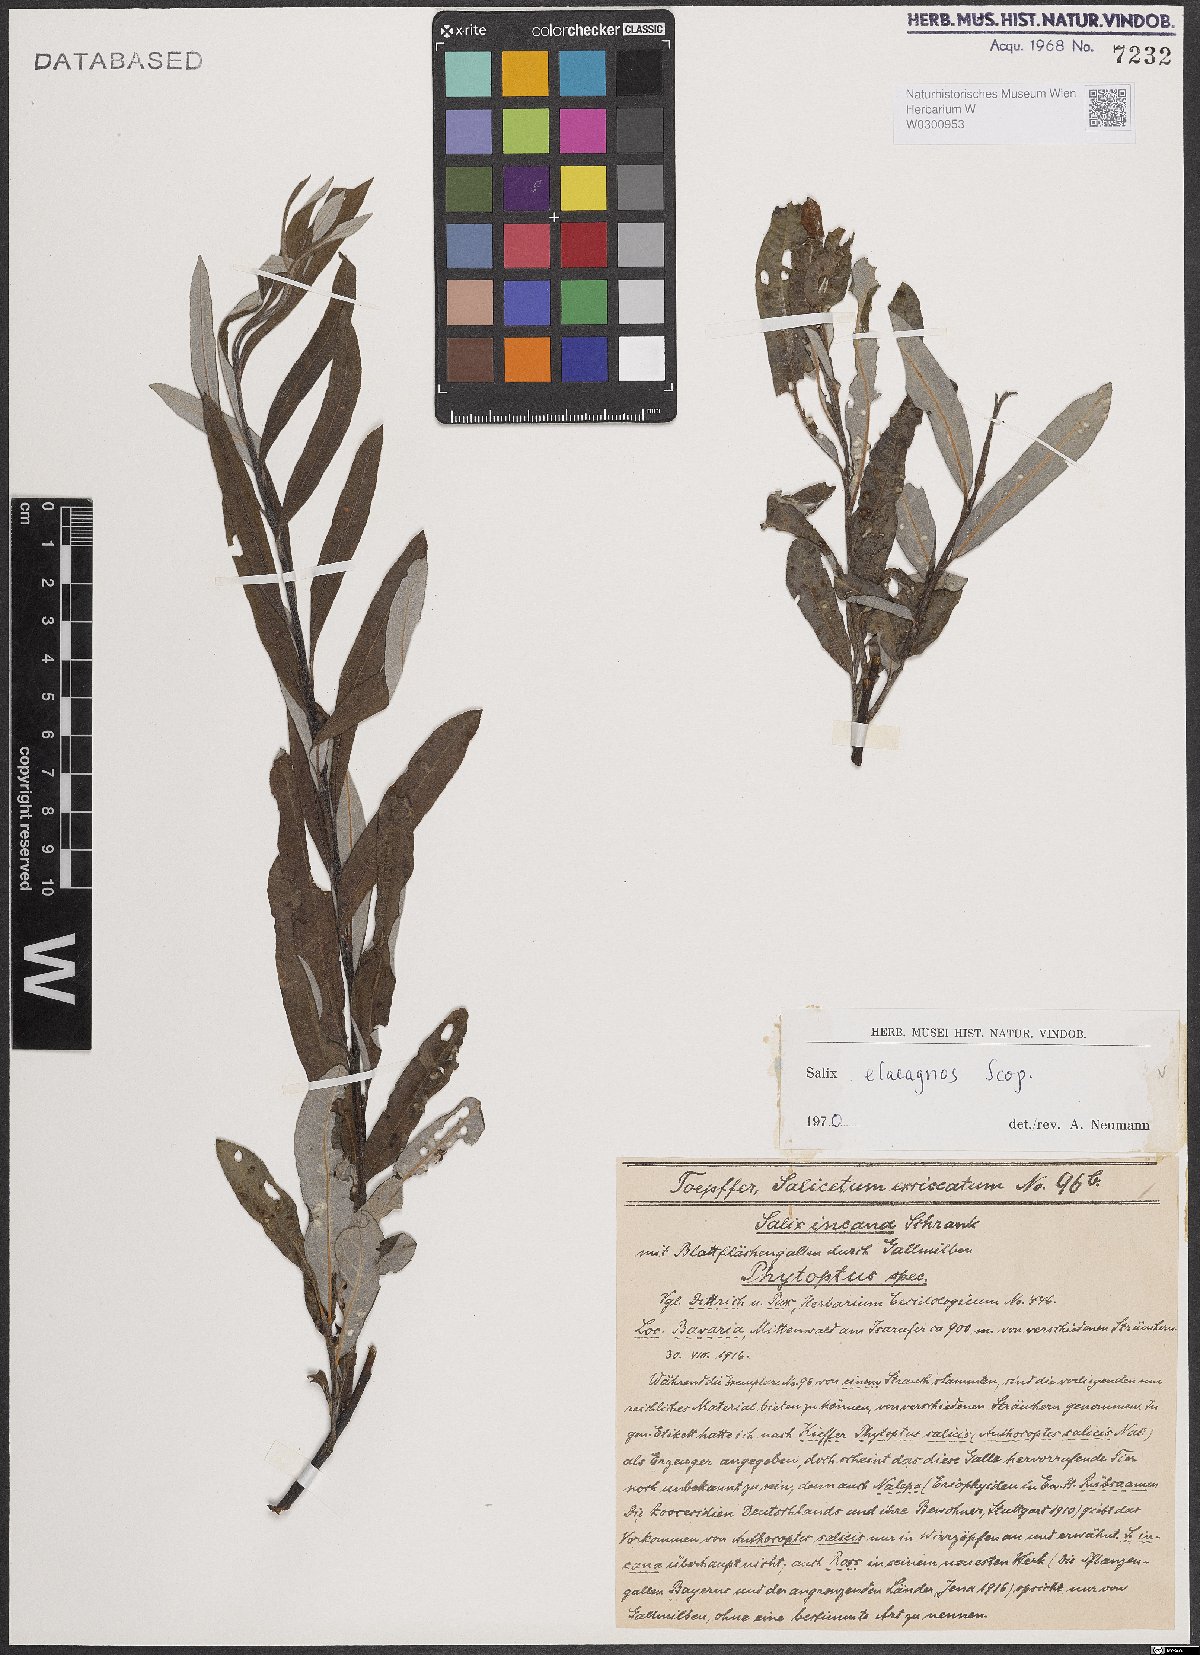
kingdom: Plantae
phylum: Tracheophyta
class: Magnoliopsida
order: Malpighiales
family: Salicaceae
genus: Salix
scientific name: Salix eleagnos
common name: Elaeagnus willow
